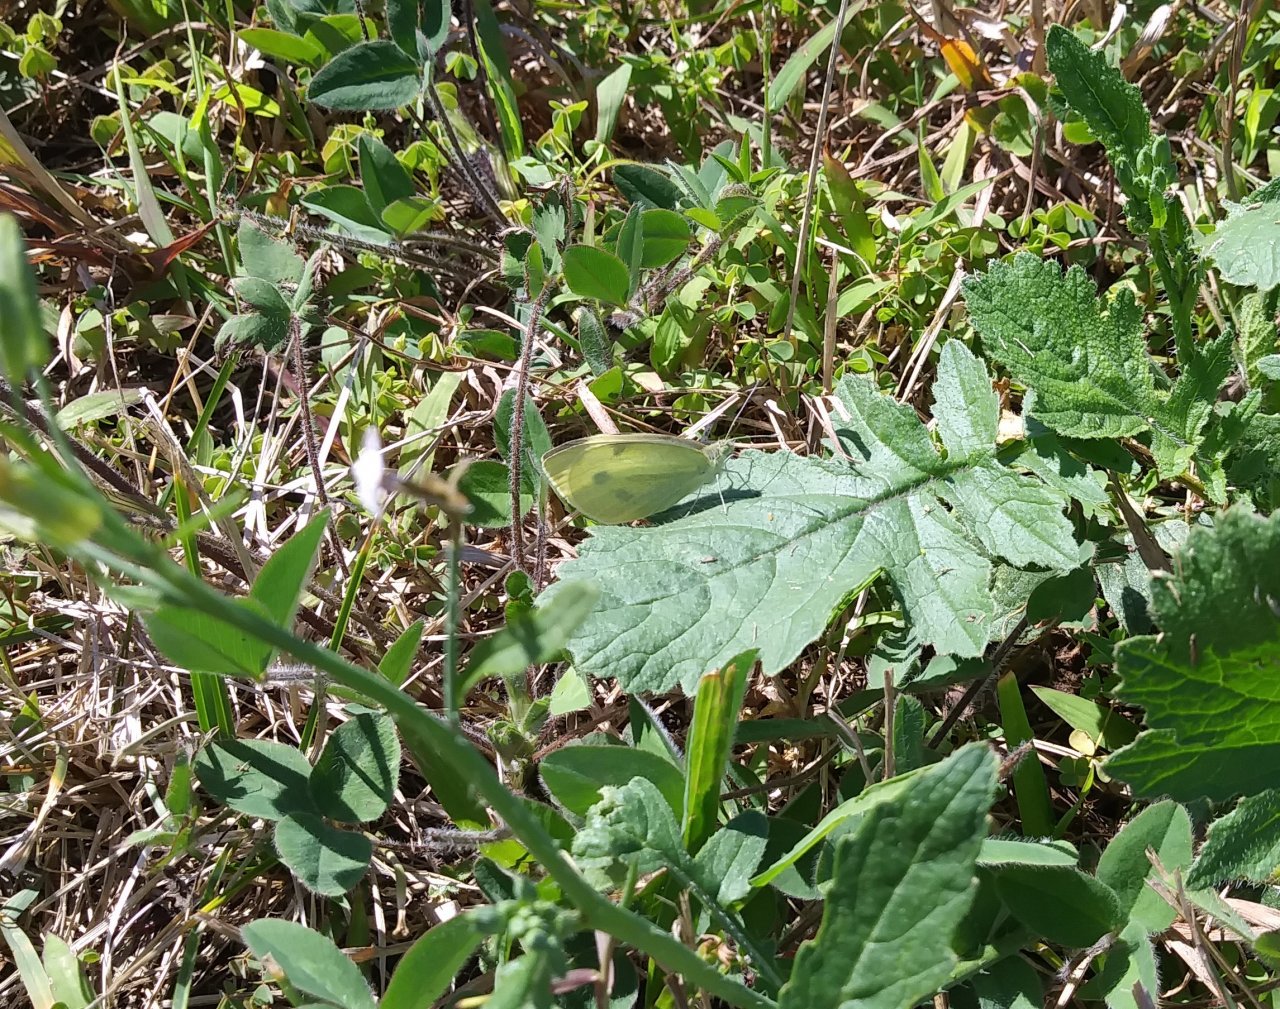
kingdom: Animalia
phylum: Arthropoda
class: Insecta
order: Lepidoptera
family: Pieridae
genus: Pieris
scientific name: Pieris rapae
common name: Cabbage White
